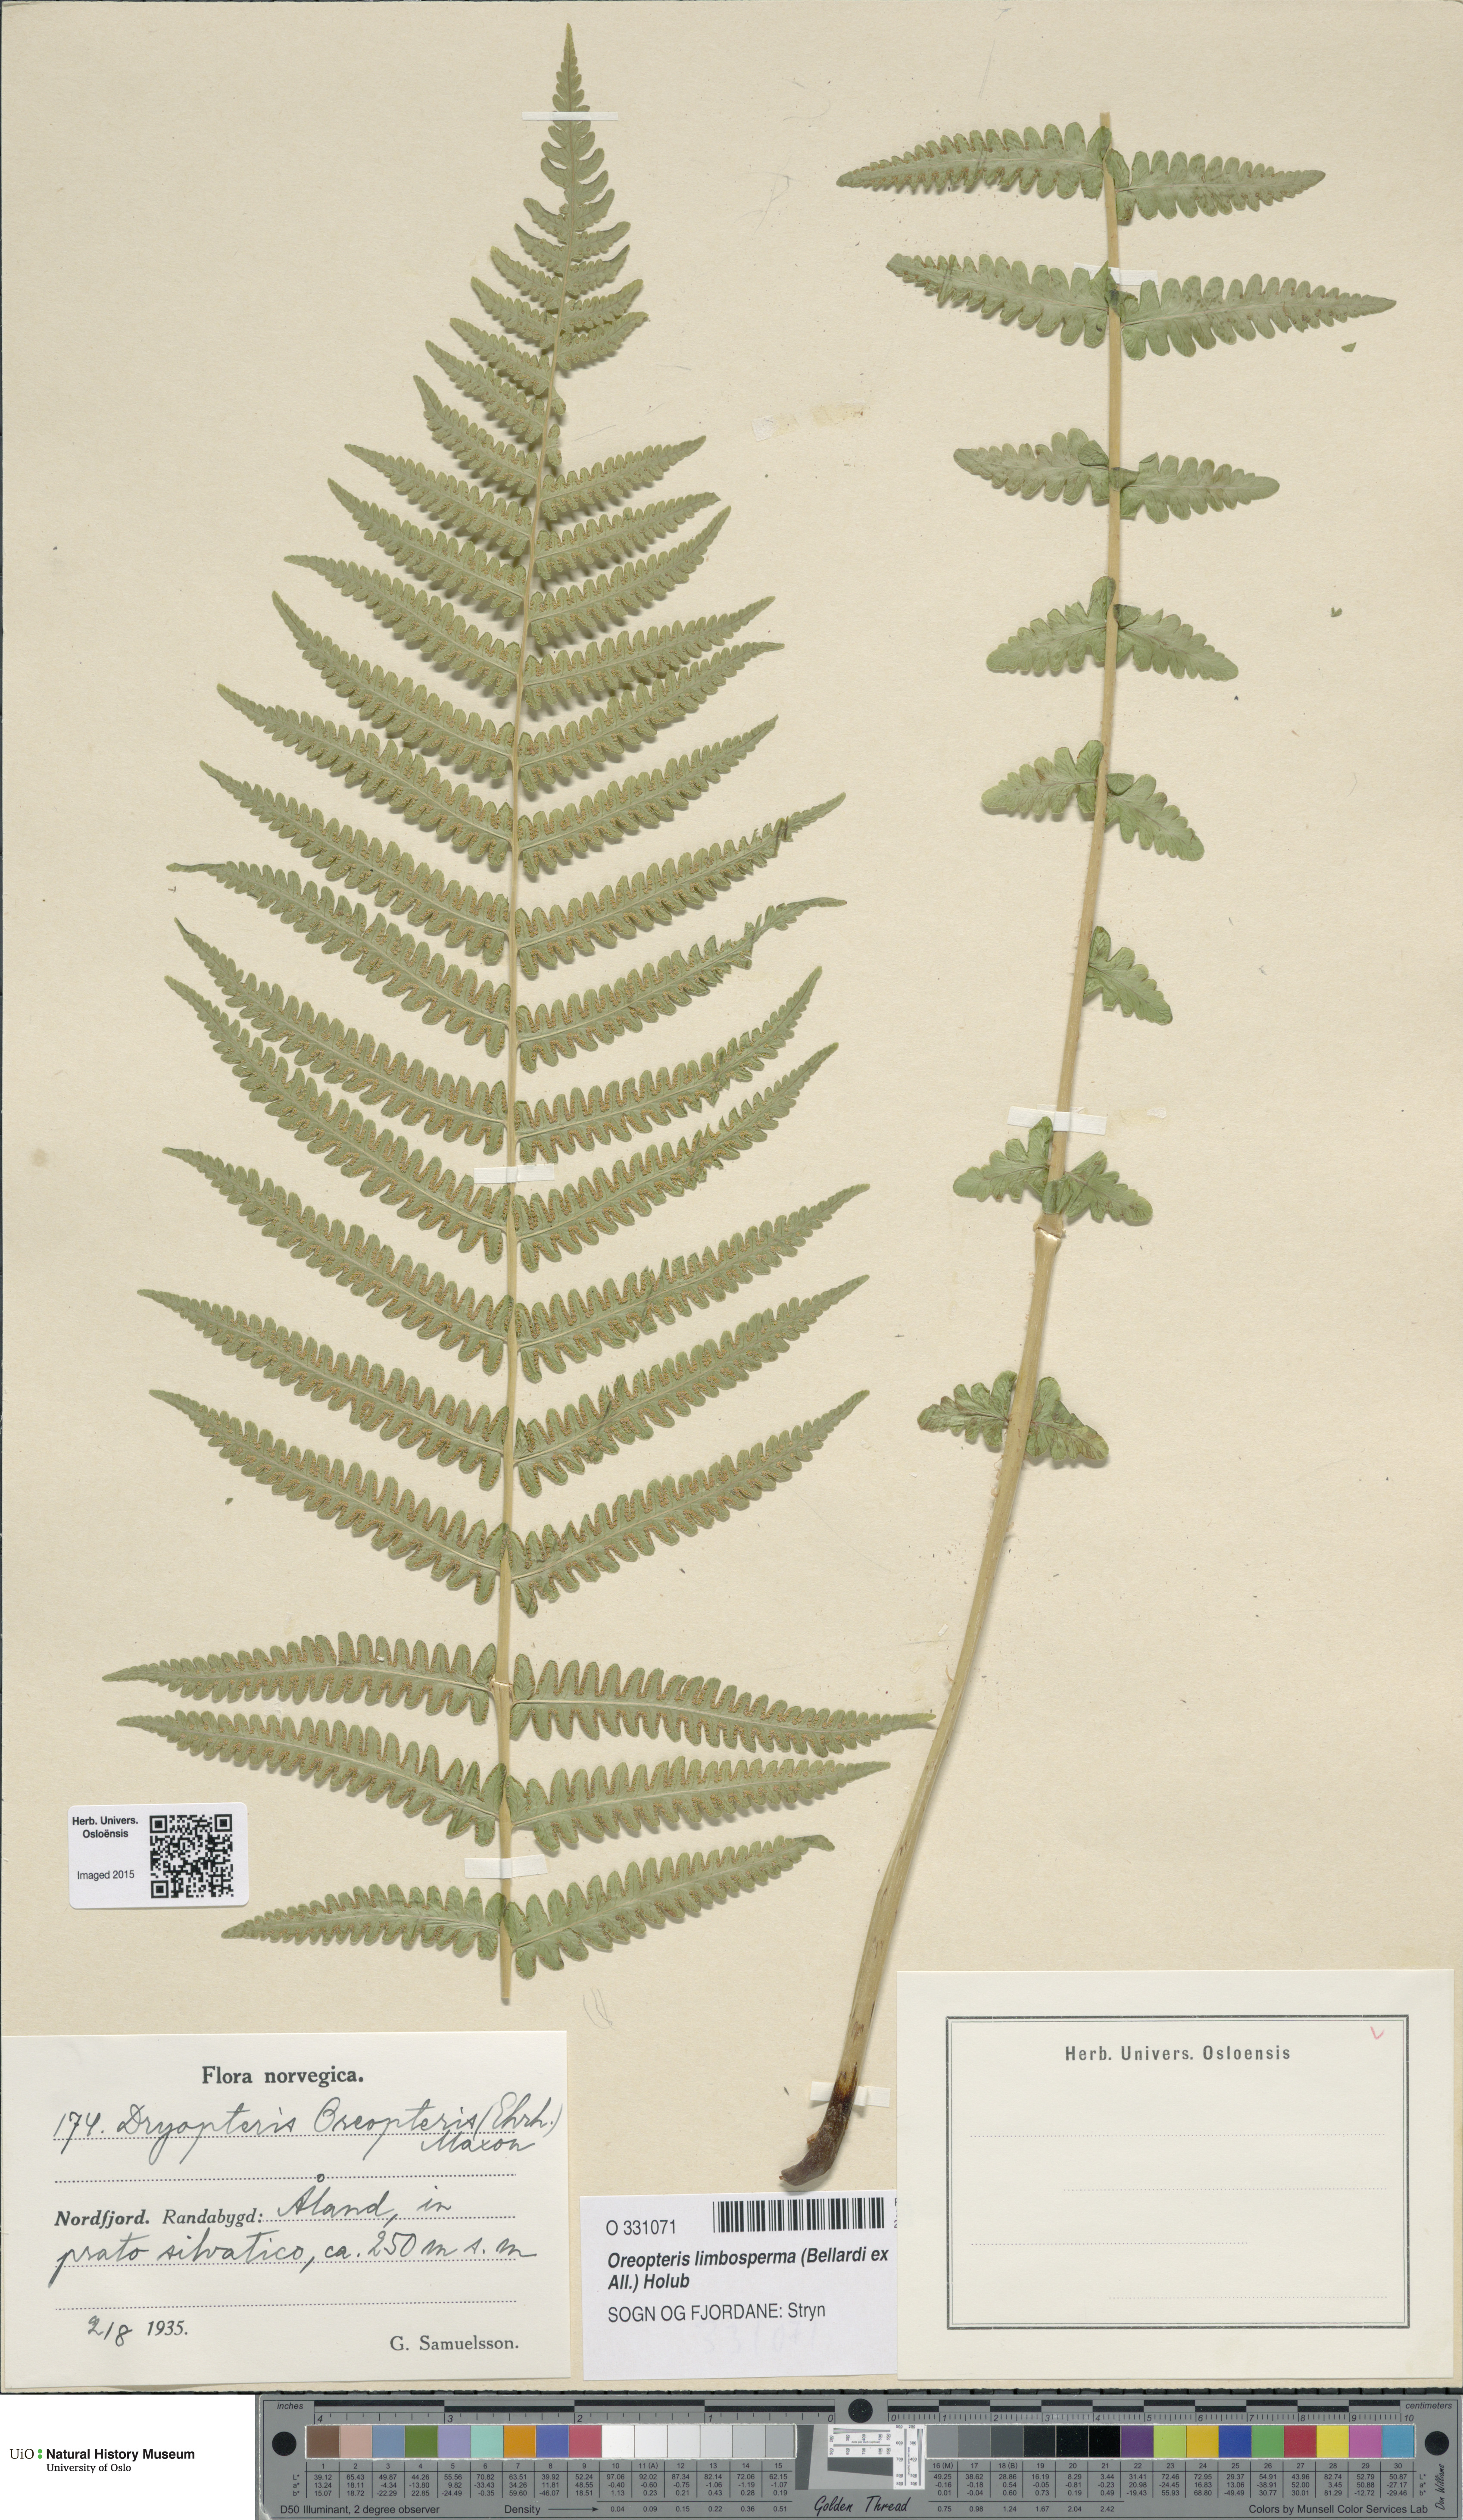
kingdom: Plantae
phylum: Tracheophyta
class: Polypodiopsida
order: Polypodiales
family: Thelypteridaceae
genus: Oreopteris
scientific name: Oreopteris limbosperma
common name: Lemon-scented fern
